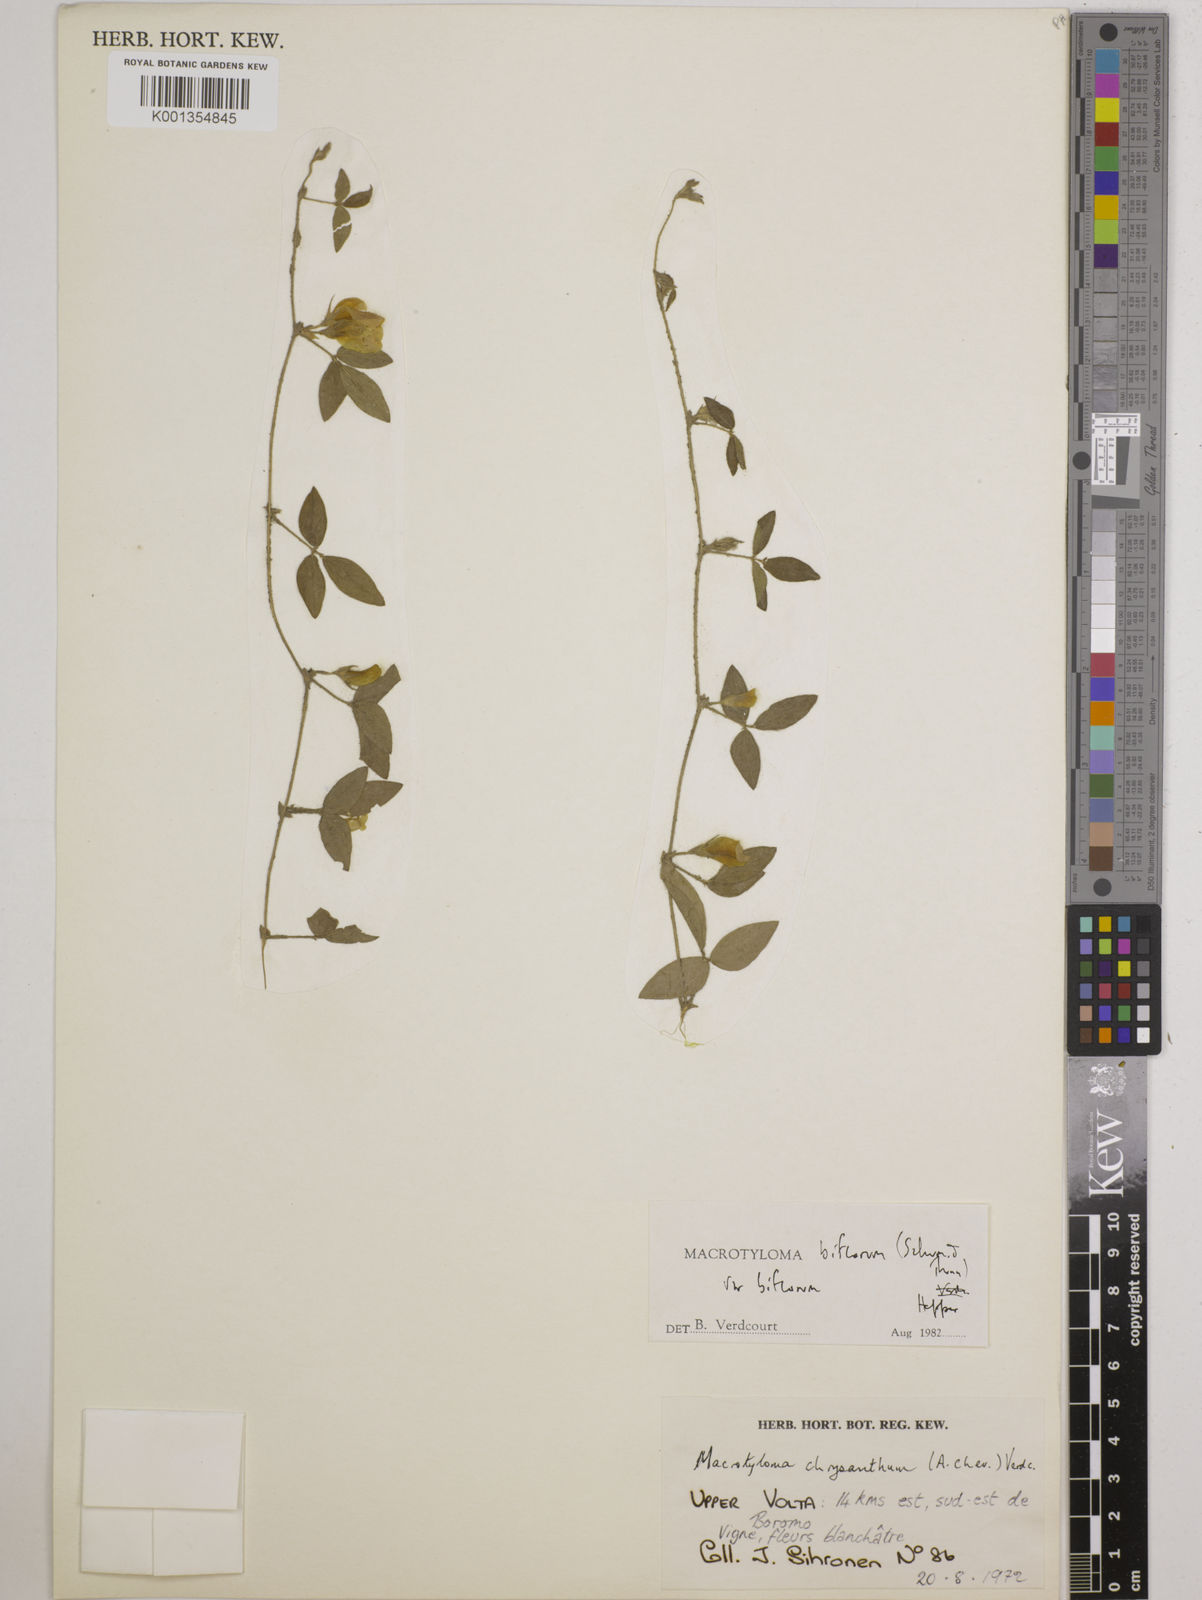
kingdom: Plantae
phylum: Tracheophyta
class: Magnoliopsida
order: Fabales
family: Fabaceae
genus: Macrotyloma
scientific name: Macrotyloma biflorum
